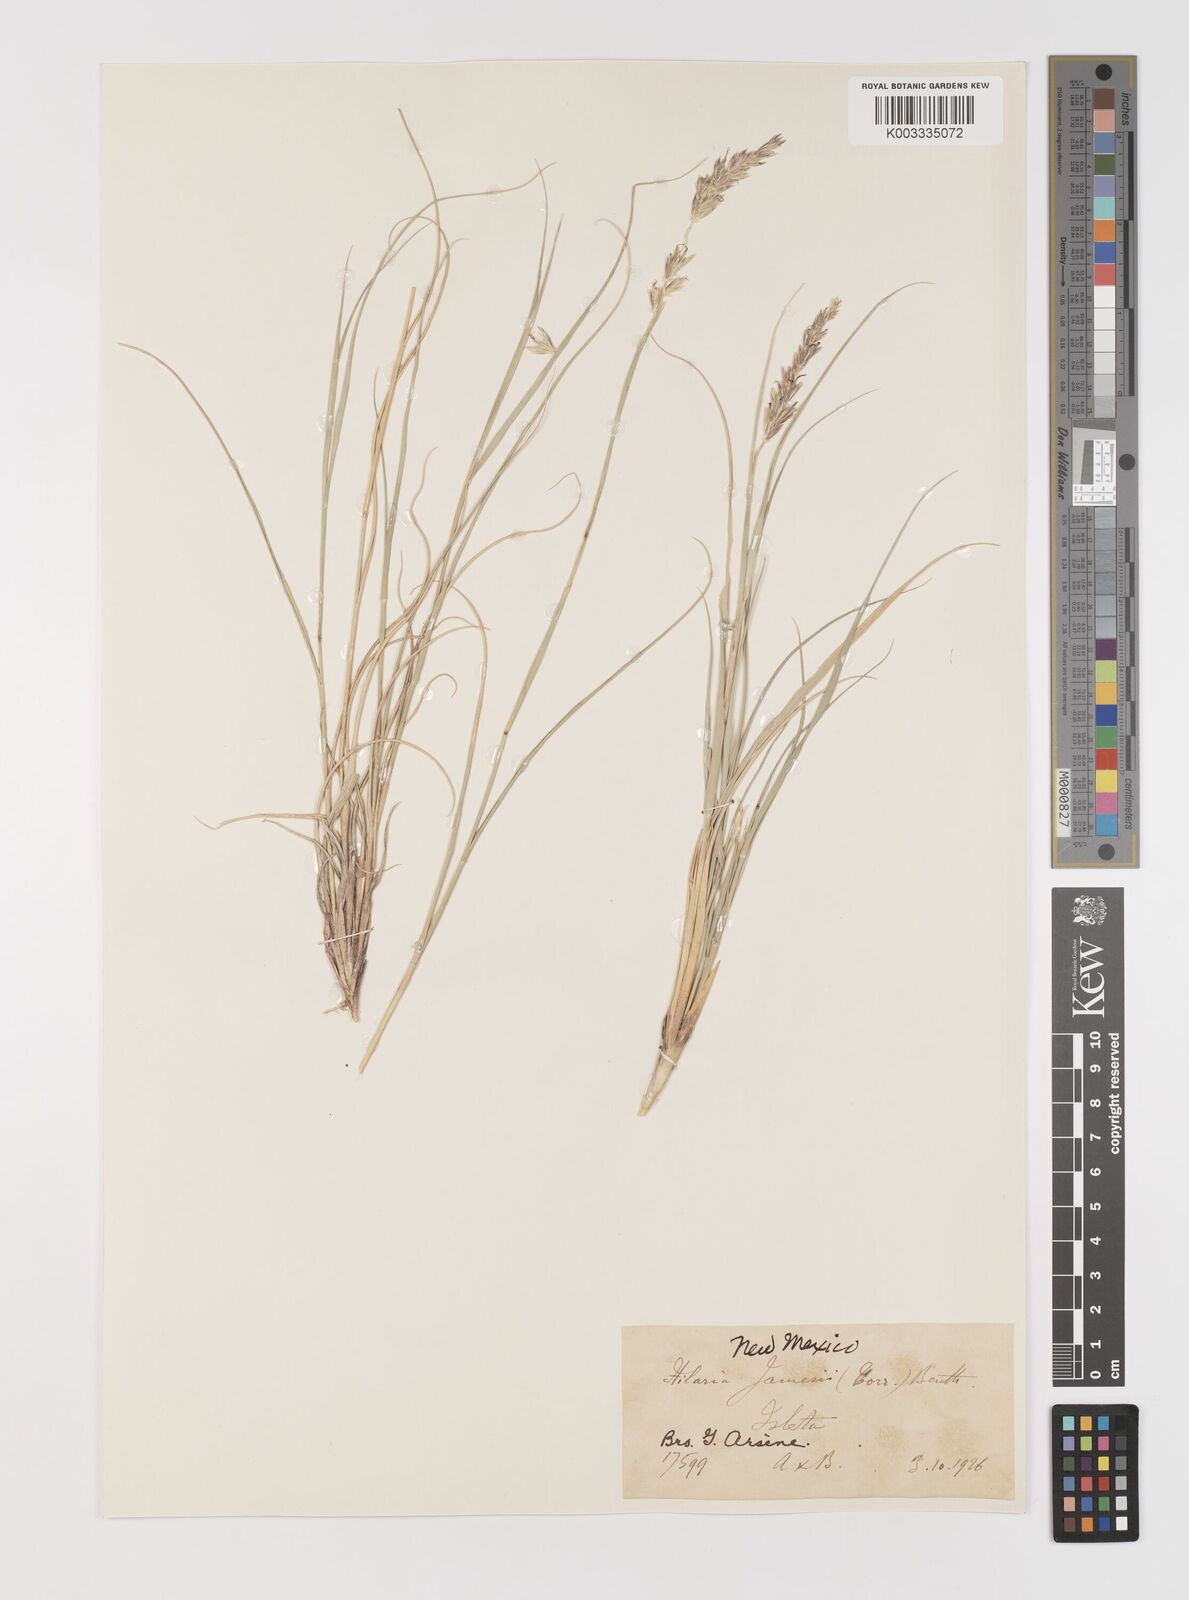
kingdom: Plantae
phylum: Tracheophyta
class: Liliopsida
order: Poales
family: Poaceae
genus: Hilaria
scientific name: Hilaria jamesii
